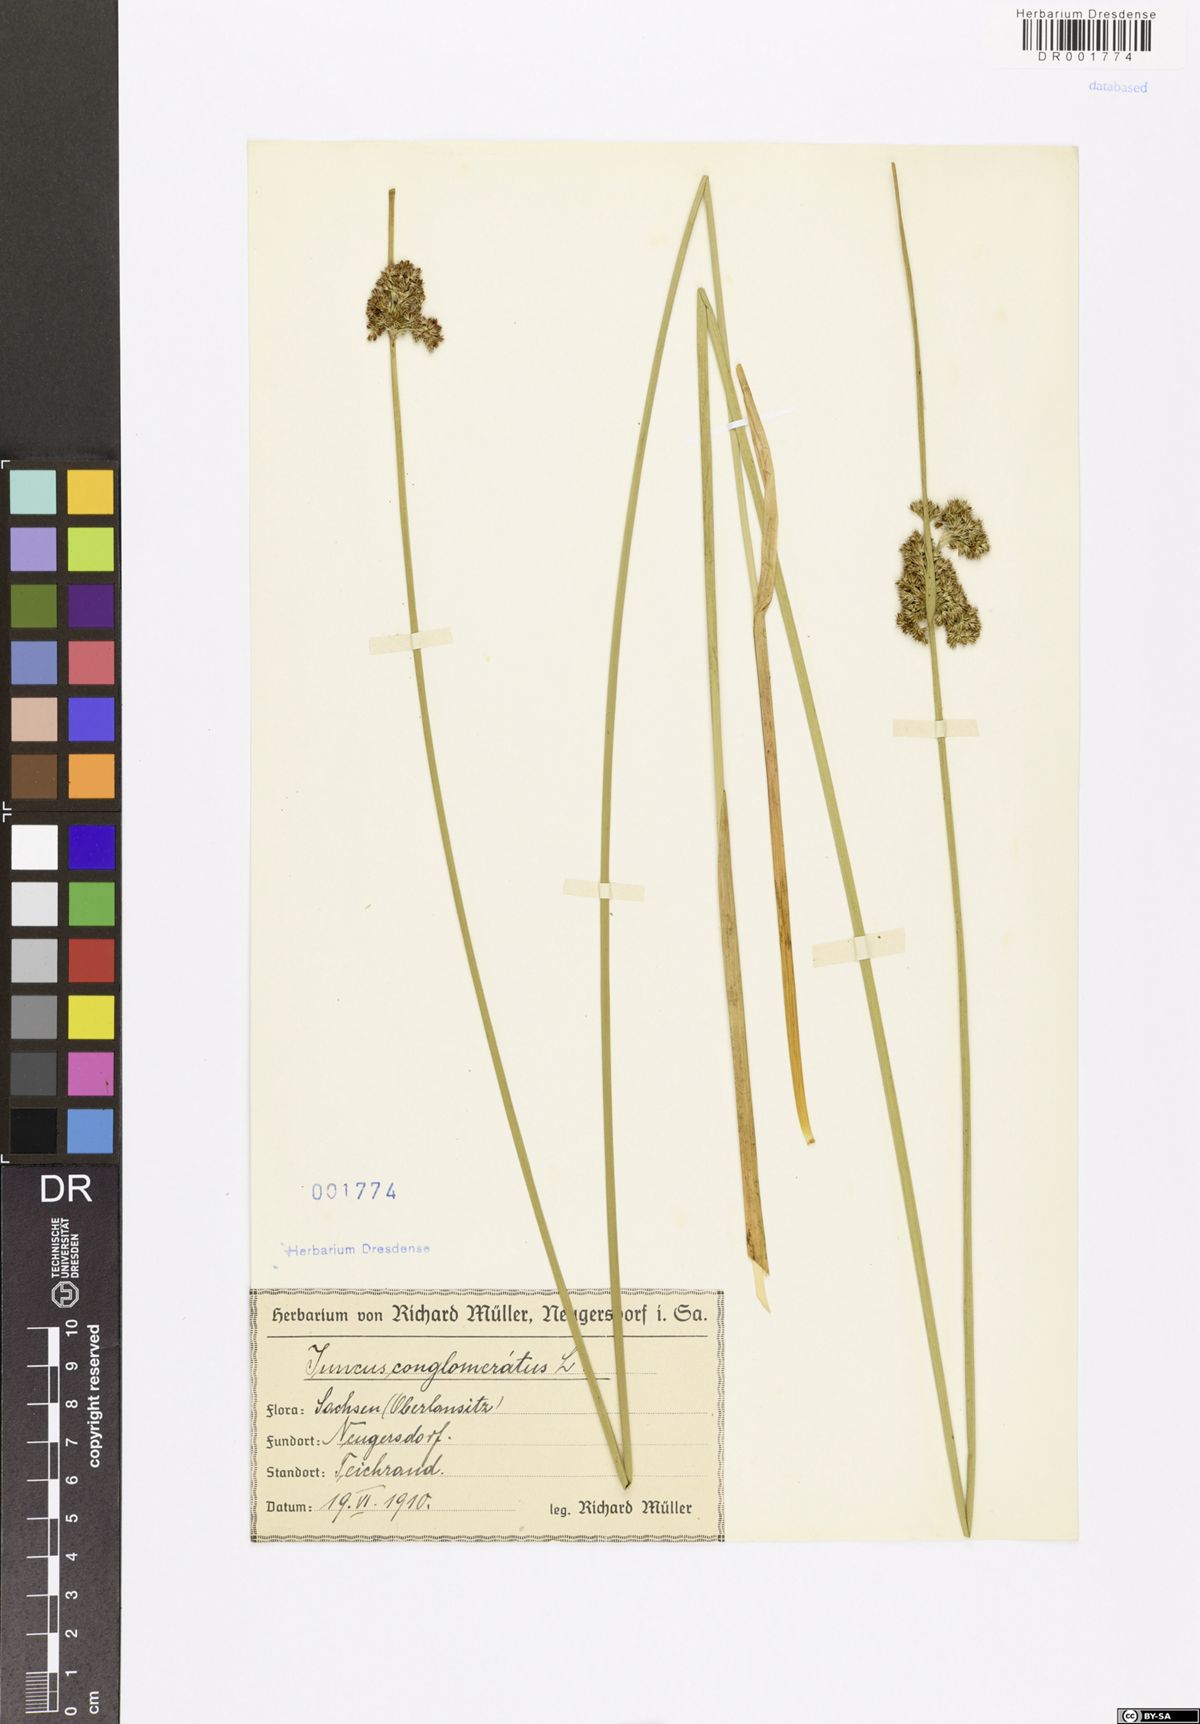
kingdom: Plantae
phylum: Tracheophyta
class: Liliopsida
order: Poales
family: Juncaceae
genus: Juncus
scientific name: Juncus conglomeratus
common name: Compact rush
